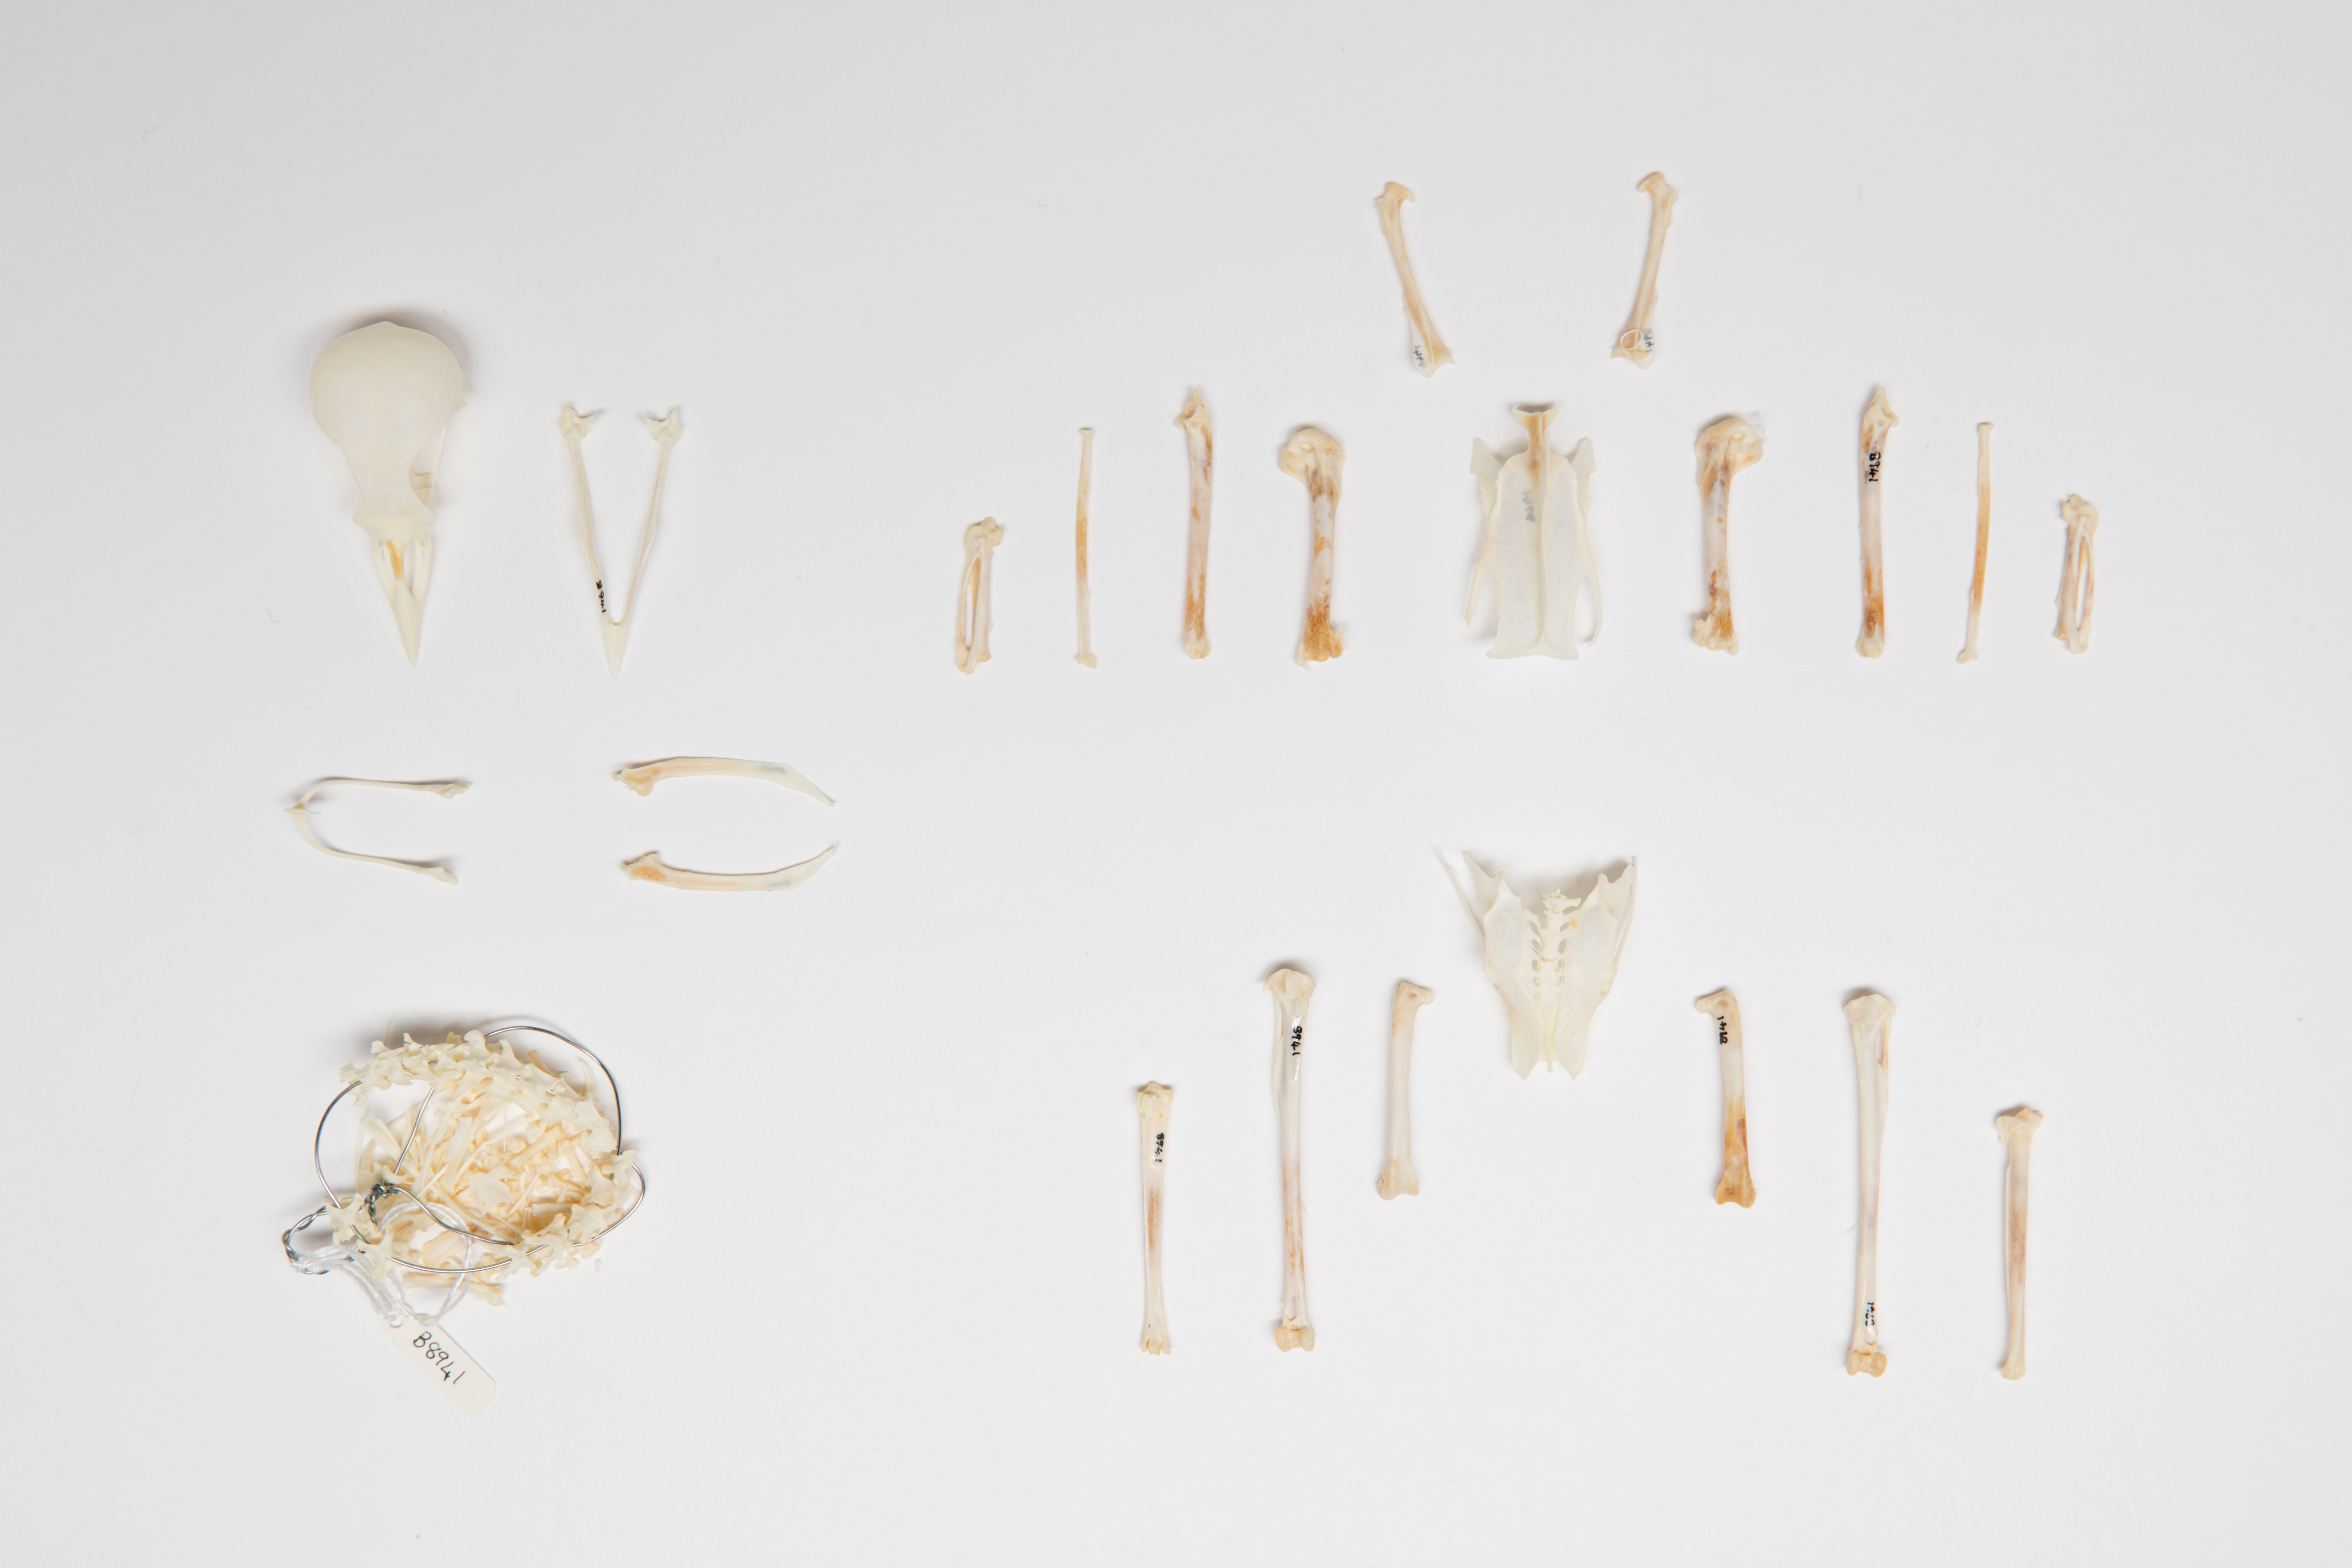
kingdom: Animalia
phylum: Chordata
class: Aves
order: Passeriformes
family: Sturnidae
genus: Acridotheres
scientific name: Acridotheres tristis
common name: Common myna
